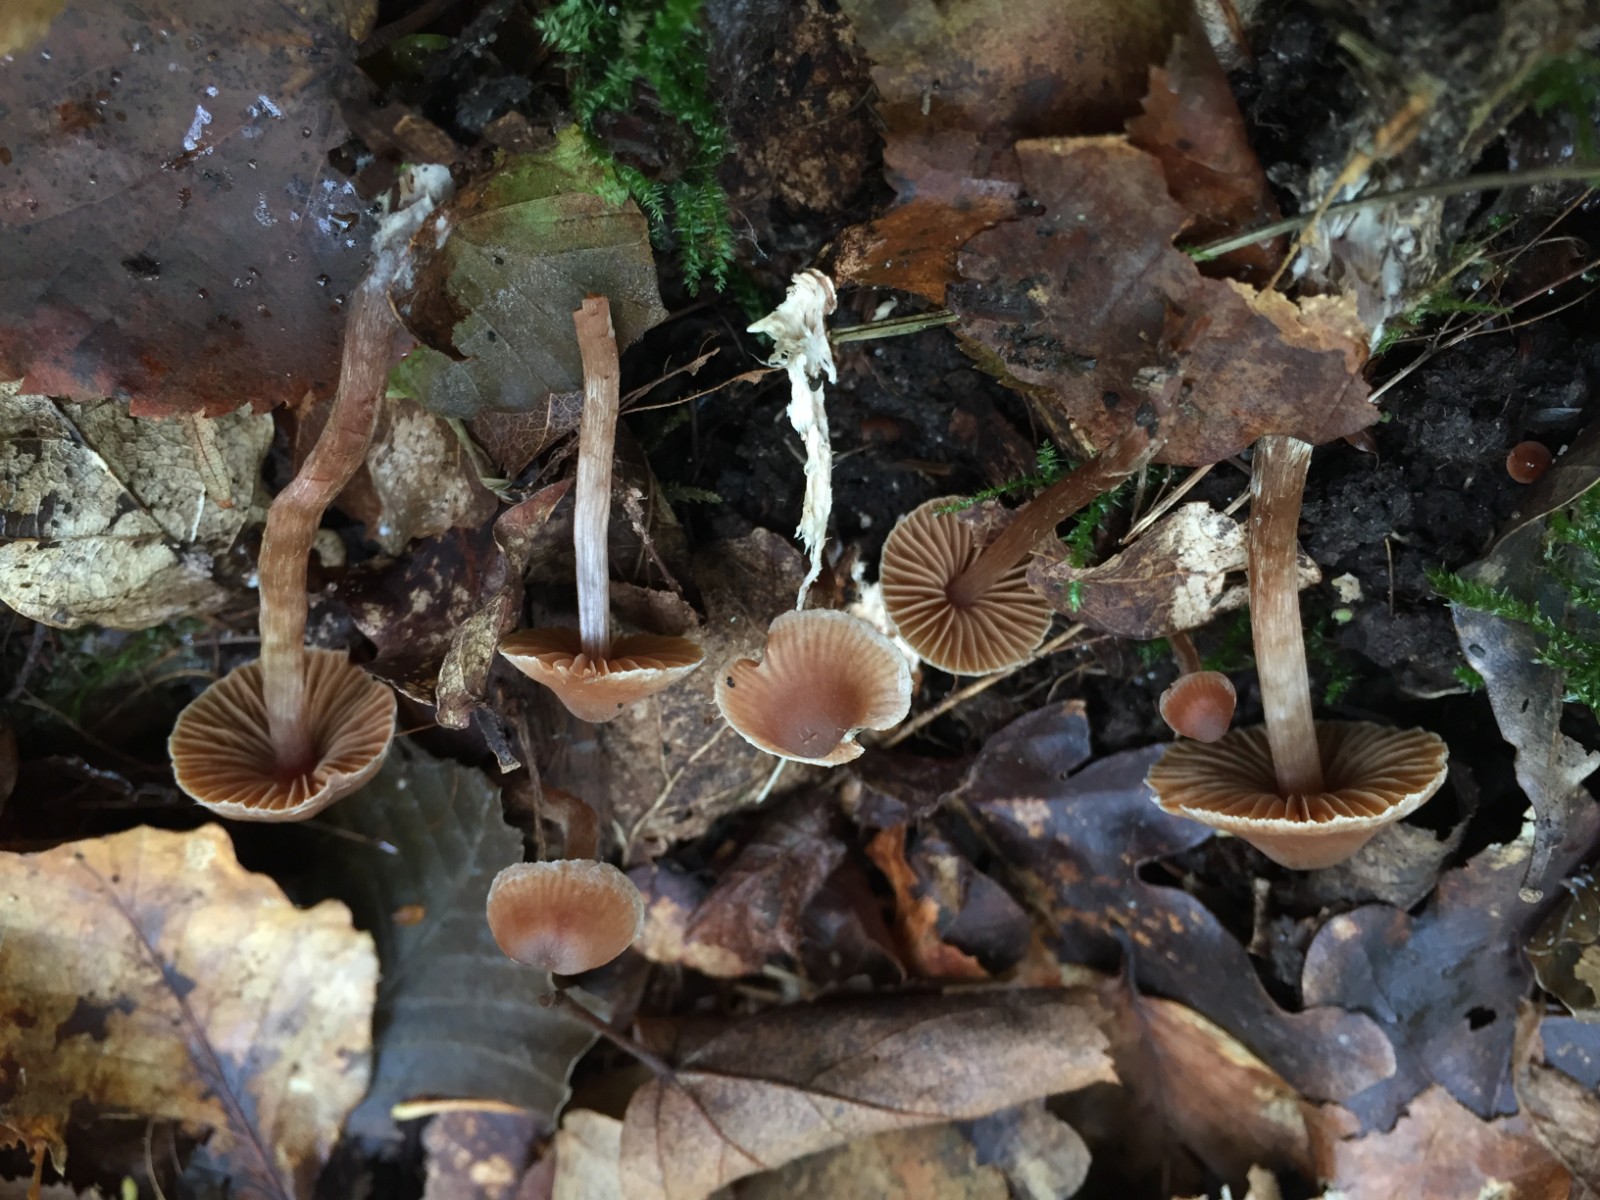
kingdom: Fungi
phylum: Basidiomycota
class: Agaricomycetes
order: Agaricales
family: Cortinariaceae
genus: Cortinarius
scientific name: Cortinarius russulaespermus
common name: finstribet slørhat
